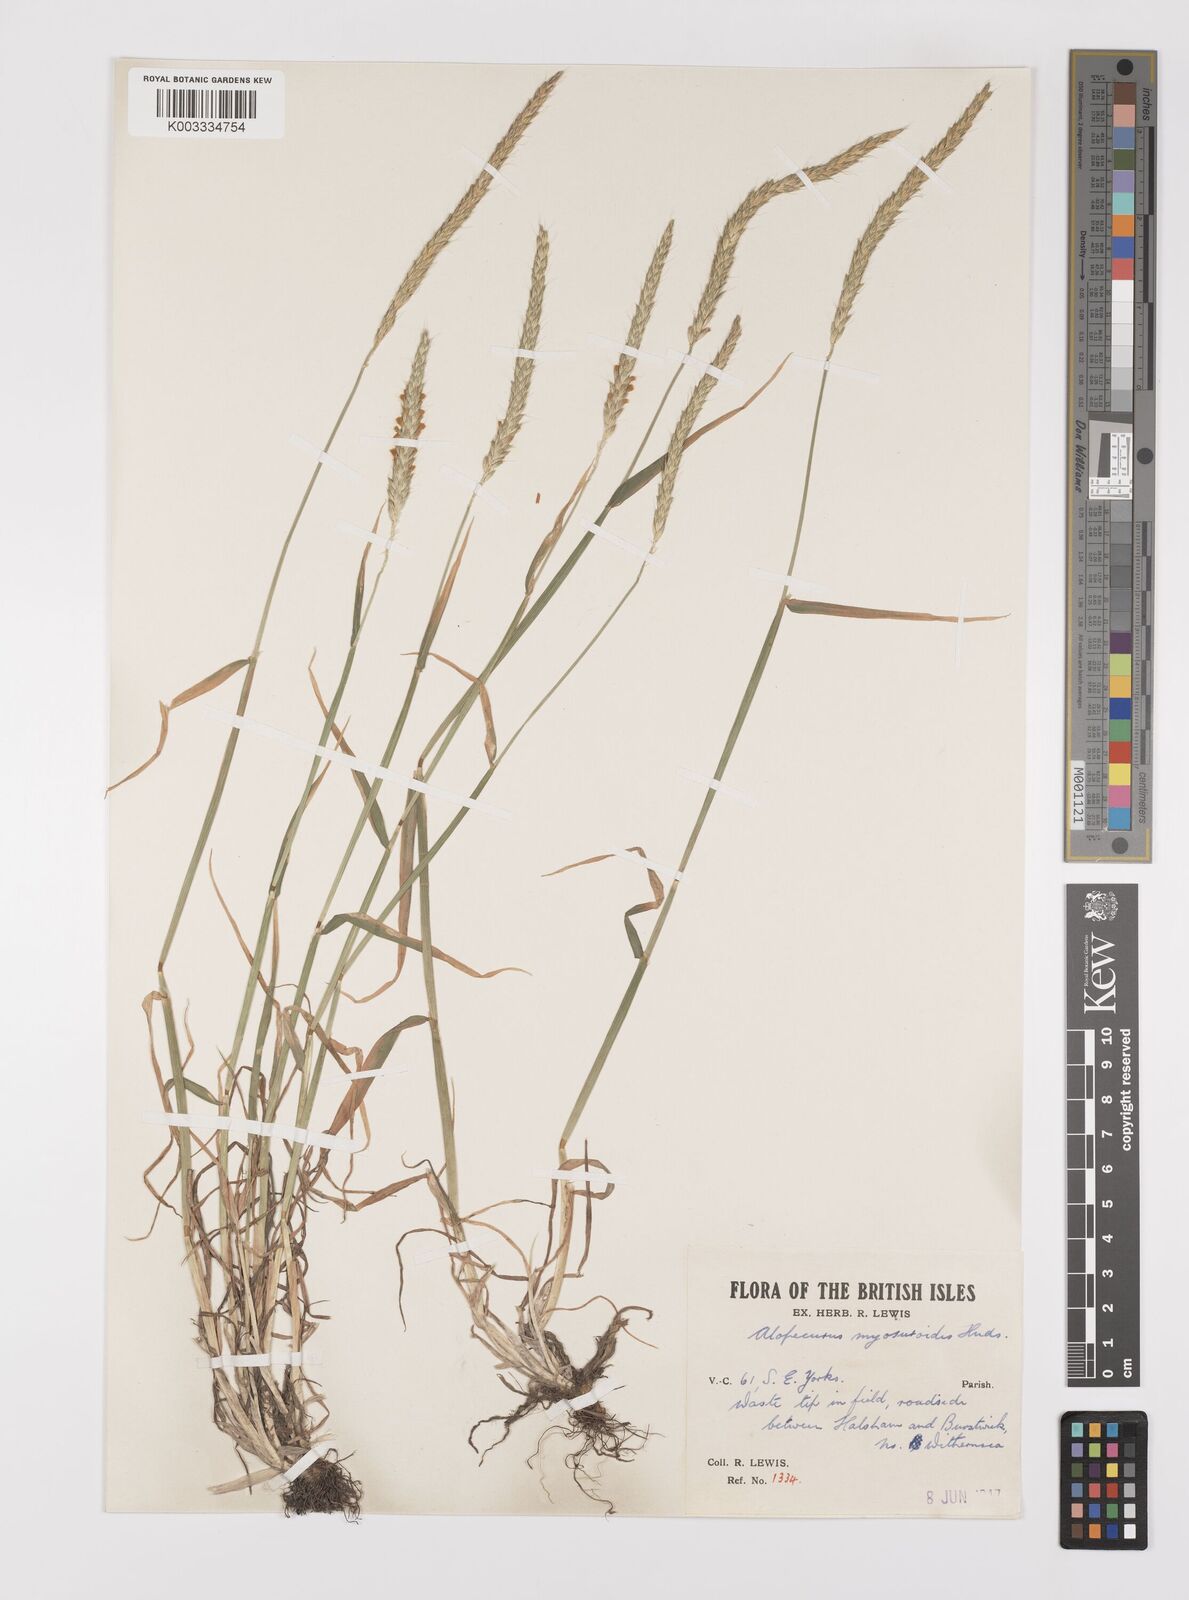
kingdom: Plantae
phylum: Tracheophyta
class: Liliopsida
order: Poales
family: Poaceae
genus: Alopecurus
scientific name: Alopecurus myosuroides
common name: Black-grass
